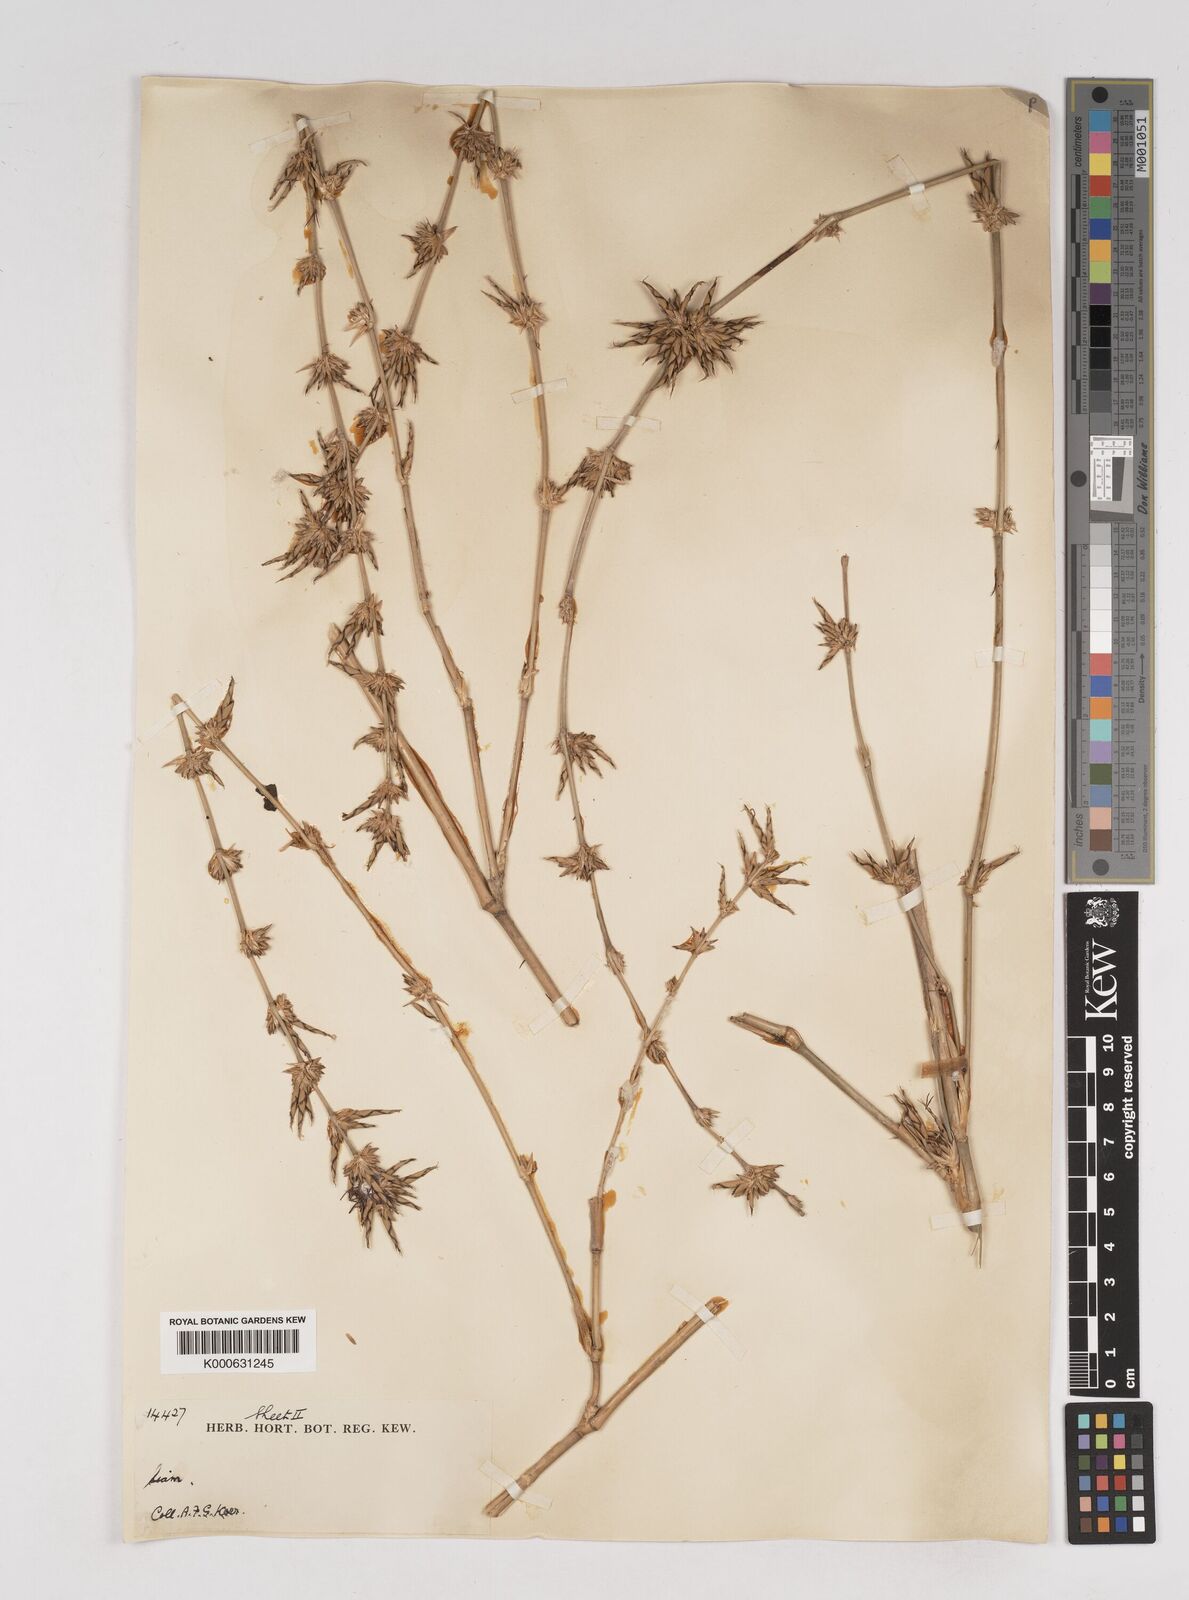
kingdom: Plantae
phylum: Tracheophyta
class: Liliopsida
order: Poales
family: Poaceae
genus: Gigantochloa
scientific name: Gigantochloa
